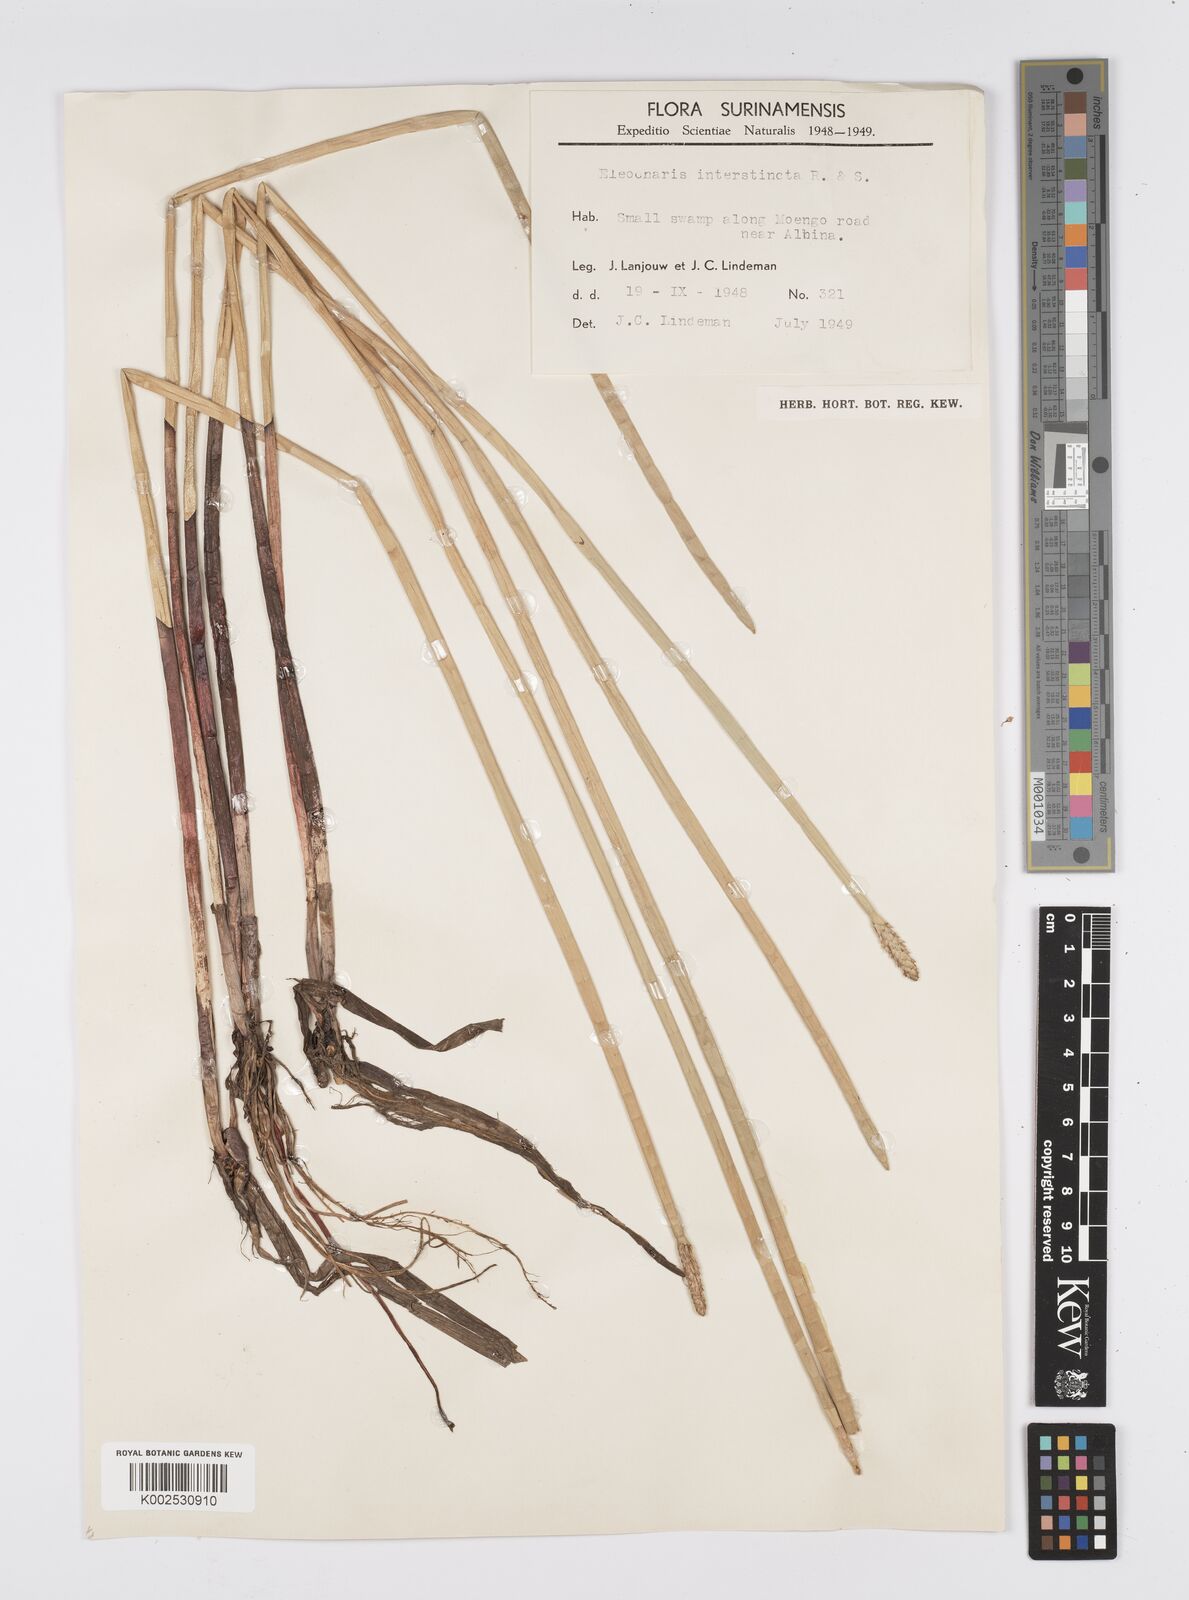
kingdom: Plantae
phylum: Tracheophyta
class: Liliopsida
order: Poales
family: Cyperaceae
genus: Eleocharis
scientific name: Eleocharis interstincta
